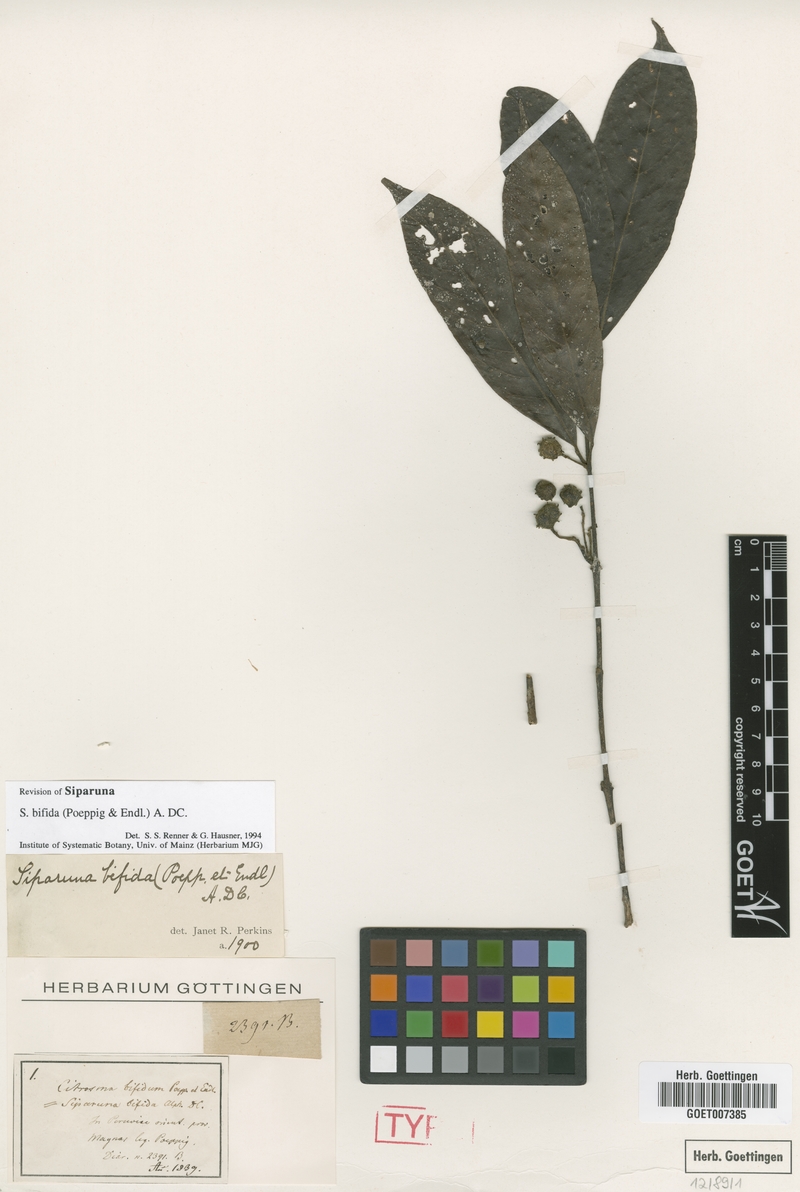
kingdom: Plantae
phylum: Tracheophyta
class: Magnoliopsida
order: Laurales
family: Siparunaceae
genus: Siparuna
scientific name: Siparuna bifida
